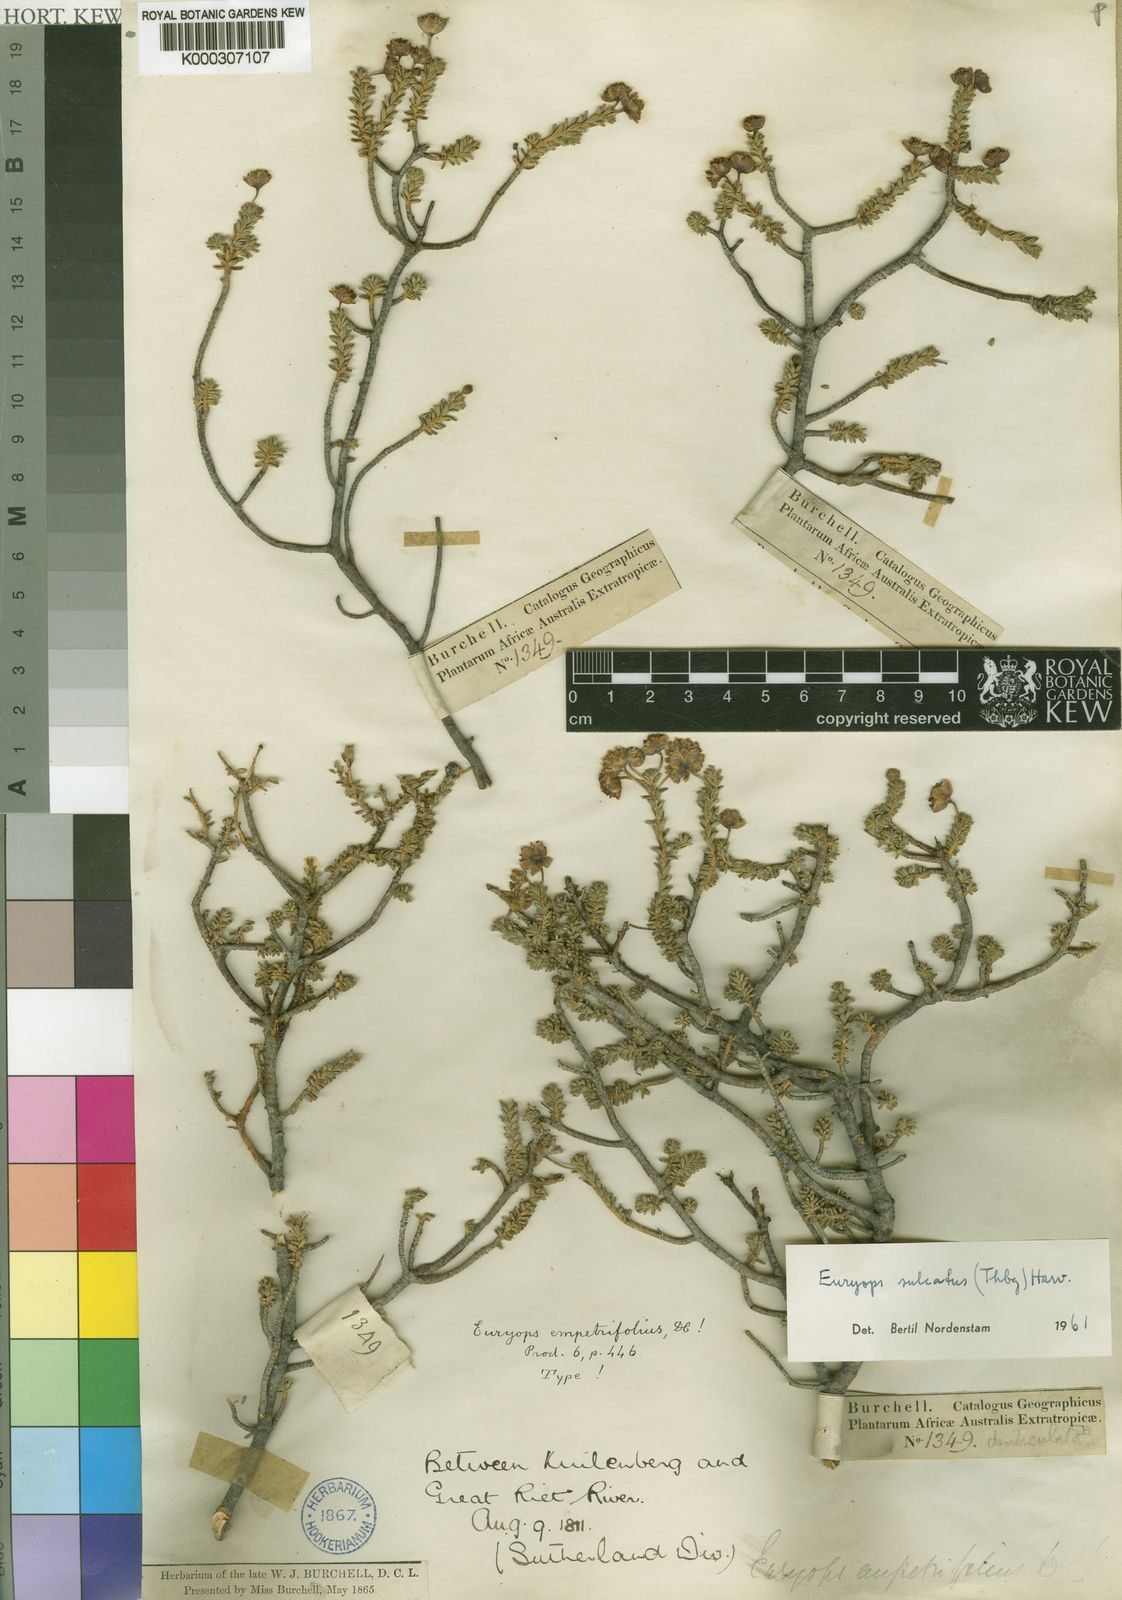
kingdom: Plantae
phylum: Tracheophyta
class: Magnoliopsida
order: Asterales
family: Asteraceae
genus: Euryops
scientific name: Euryops
